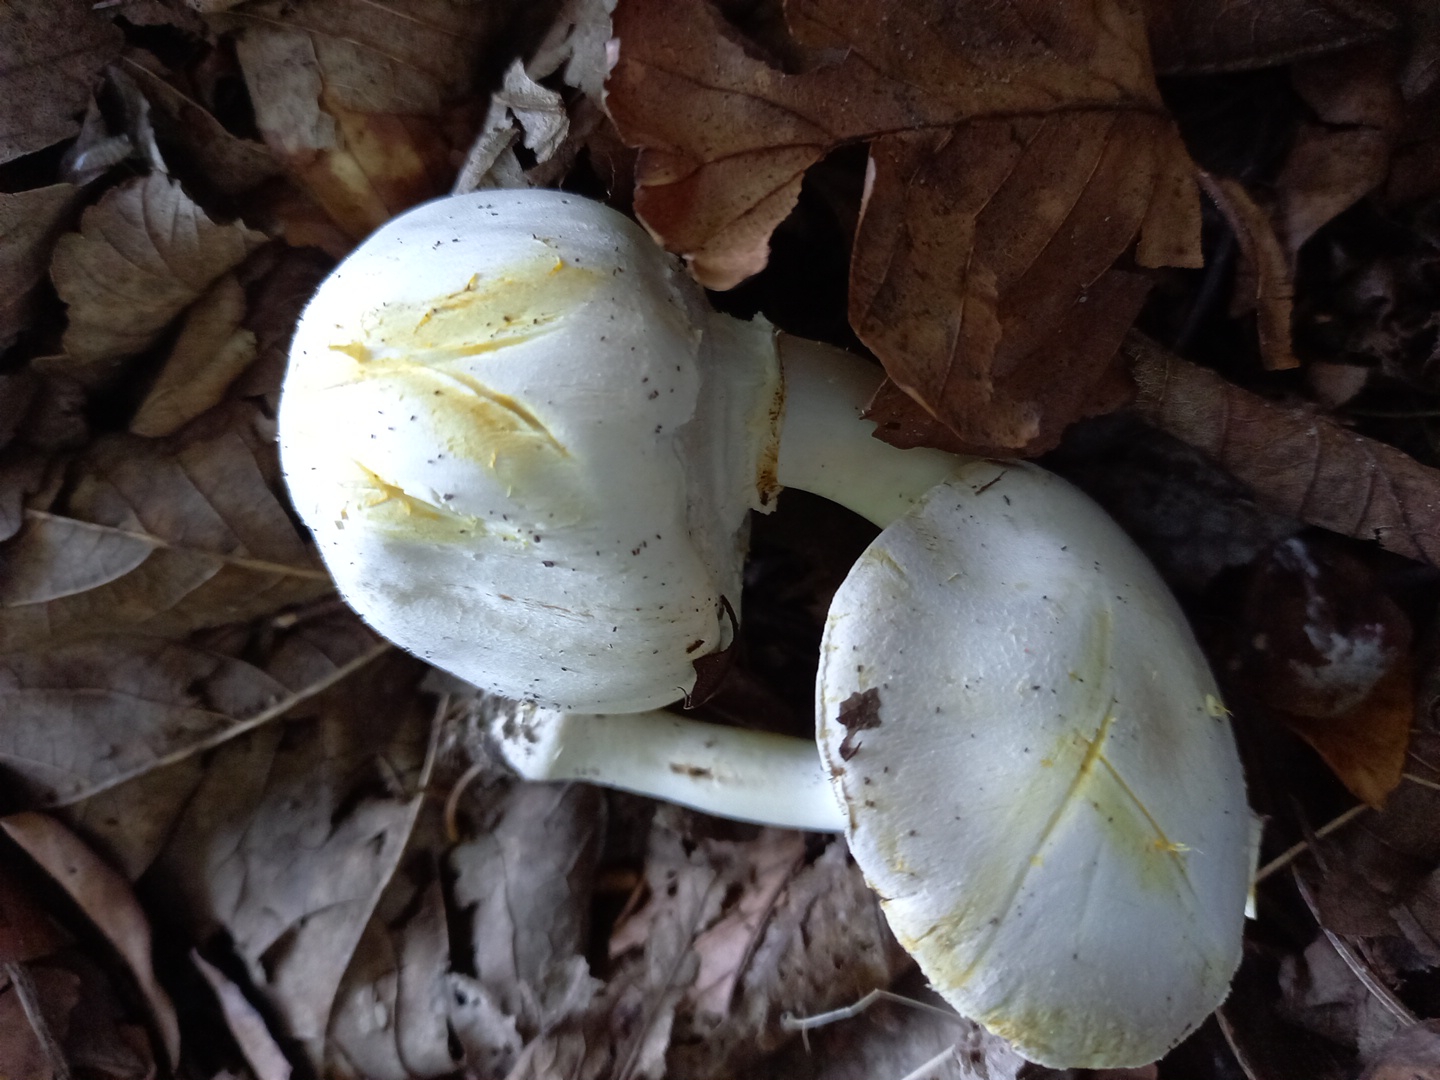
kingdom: Fungi
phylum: Basidiomycota
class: Agaricomycetes
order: Agaricales
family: Agaricaceae
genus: Agaricus
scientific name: Agaricus xanthodermus
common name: karbol-champignon
